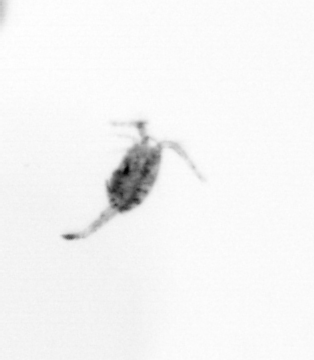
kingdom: Animalia
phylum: Arthropoda
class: Copepoda
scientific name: Copepoda
